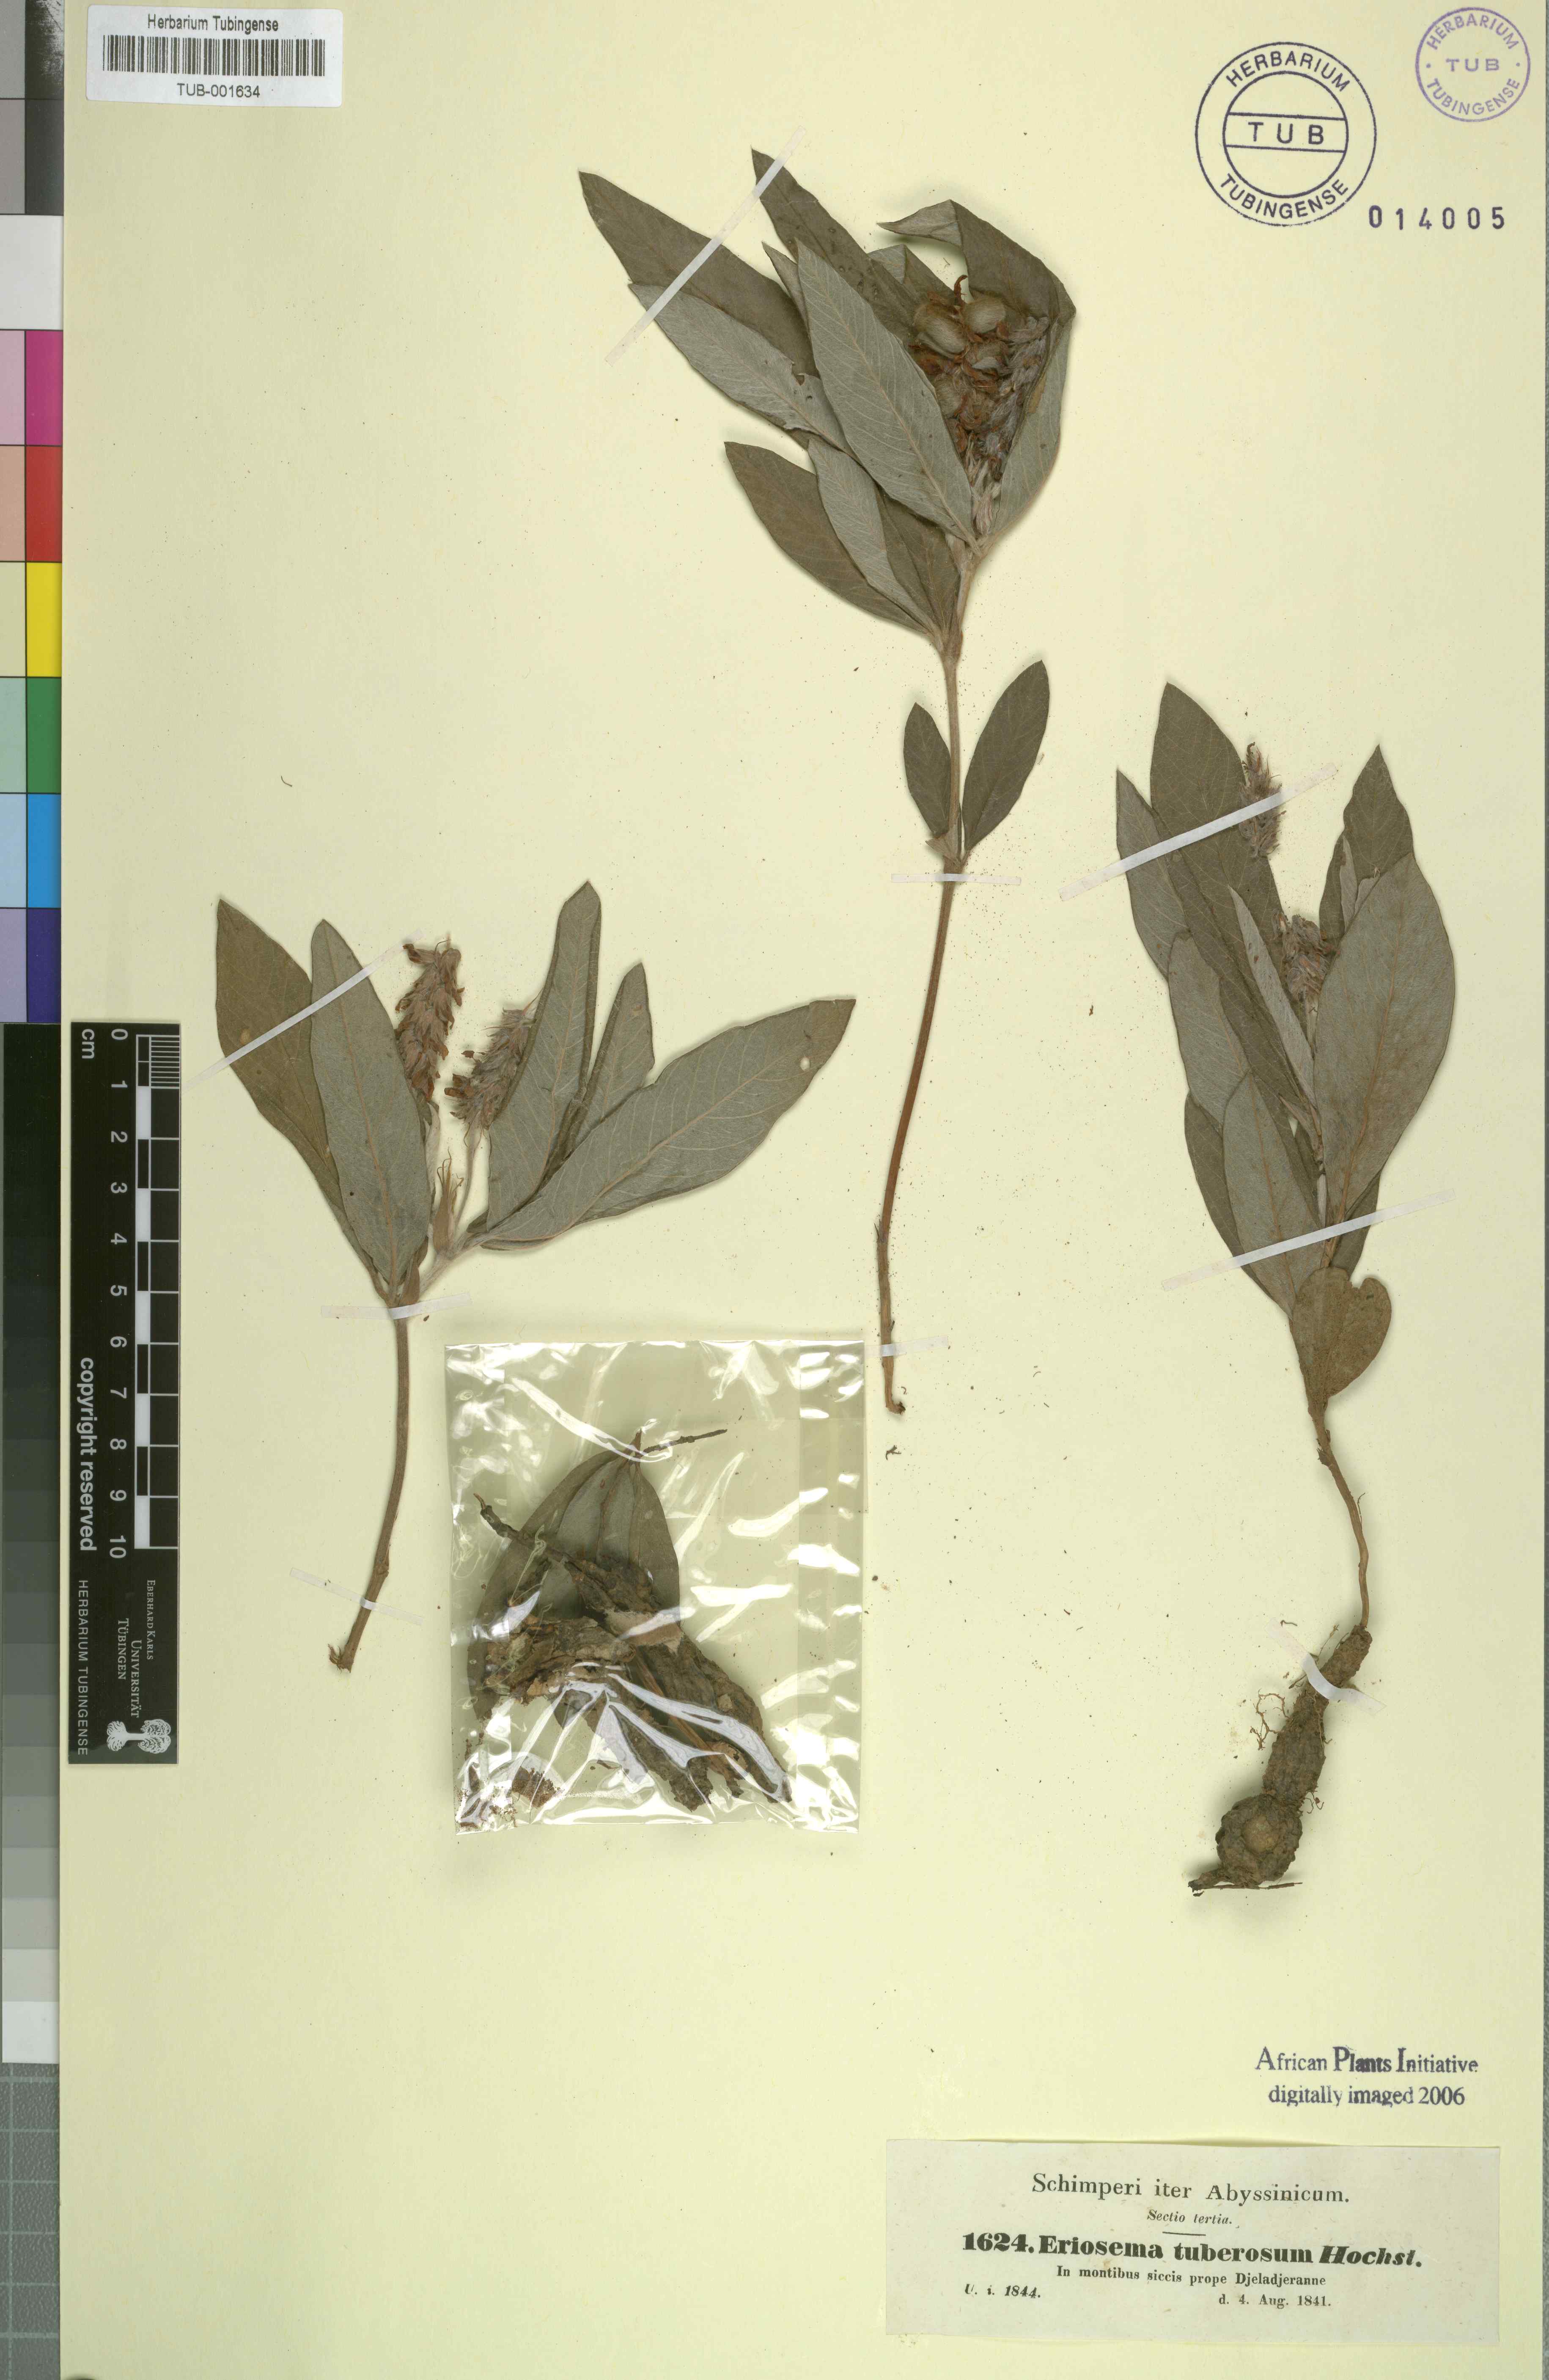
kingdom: Plantae
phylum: Tracheophyta
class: Magnoliopsida
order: Fabales
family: Fabaceae
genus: Eriosema
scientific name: Eriosema tuberosum
